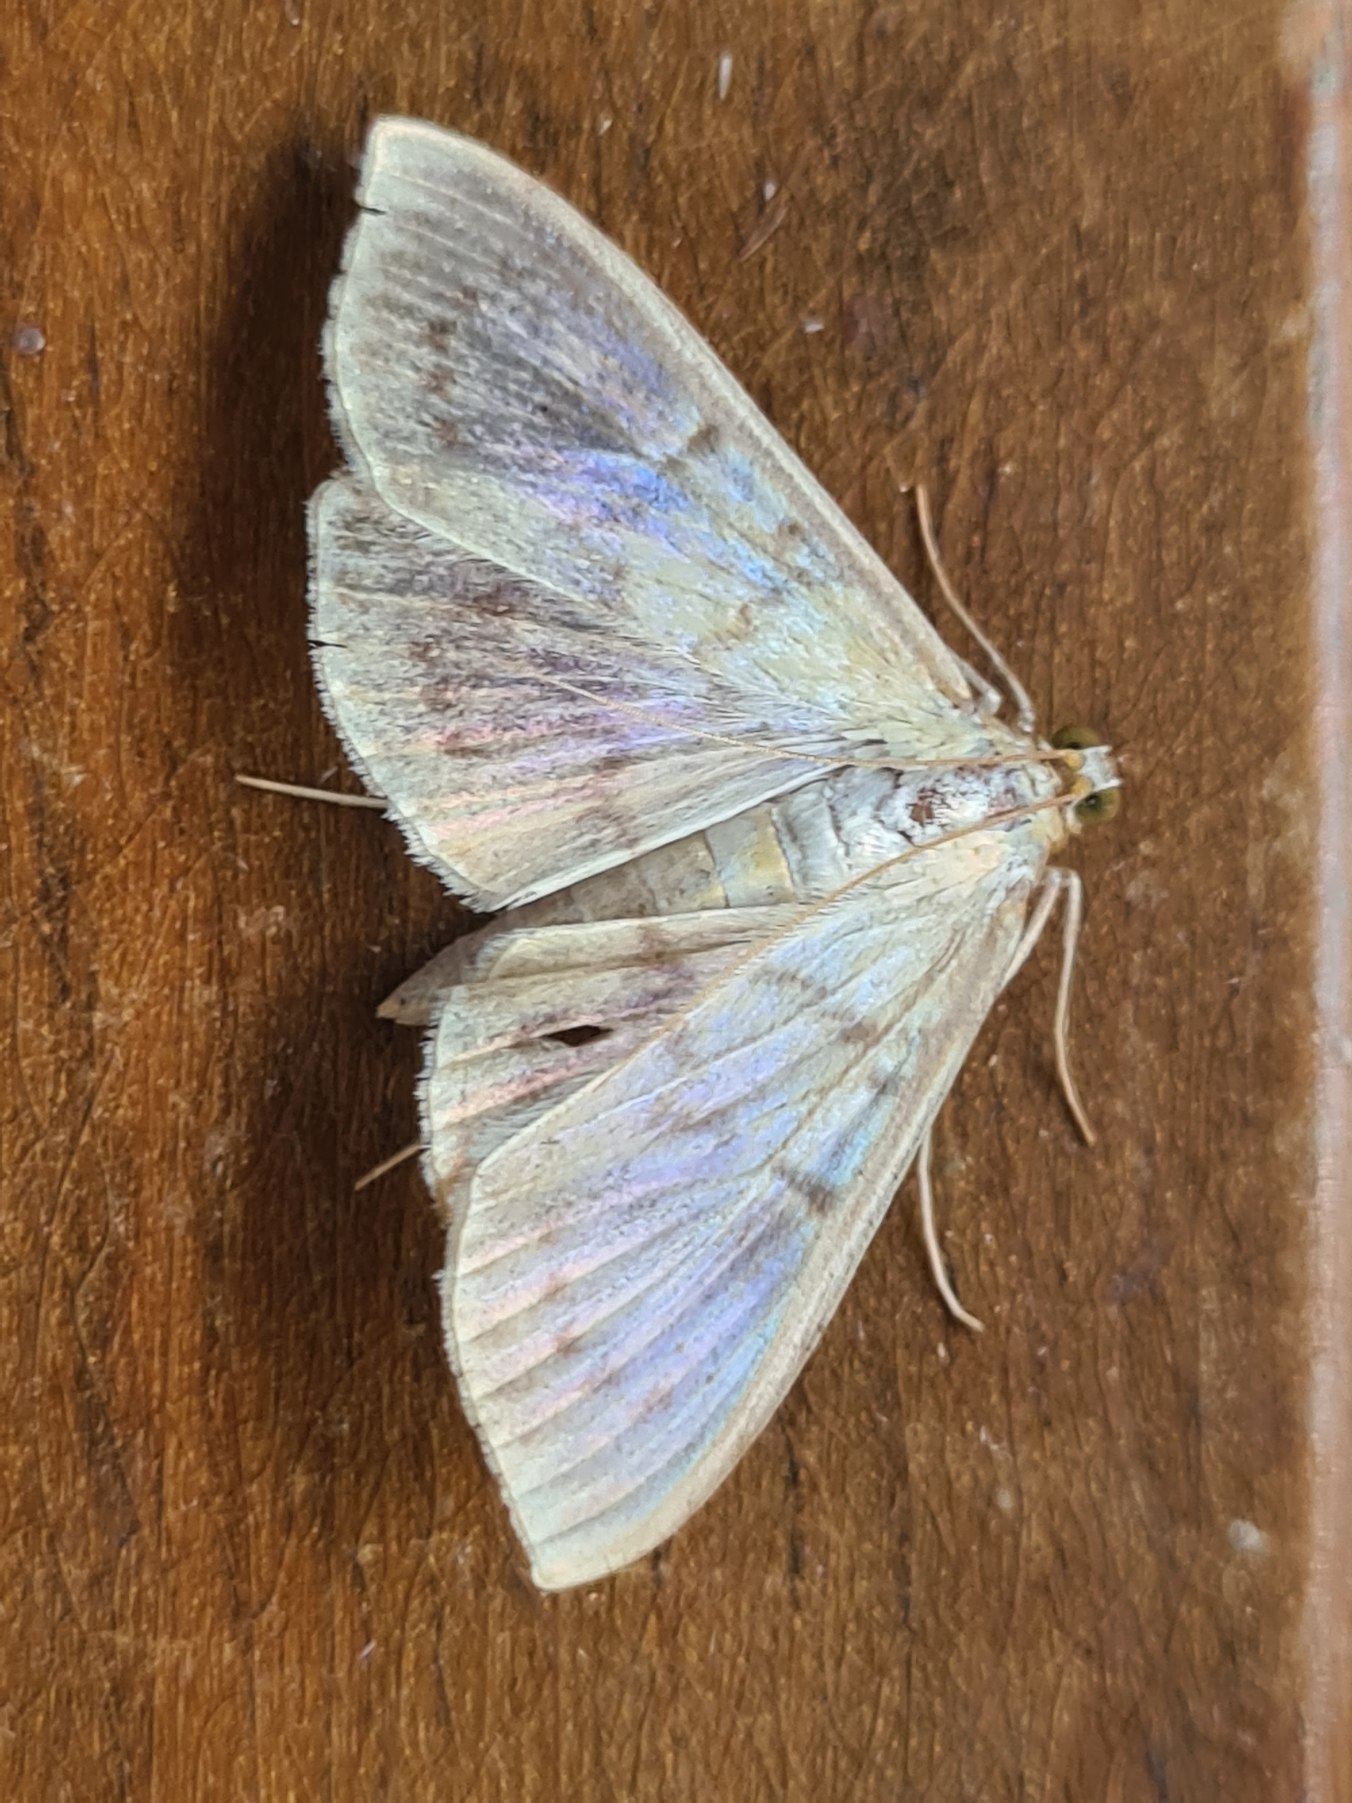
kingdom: Animalia
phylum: Arthropoda
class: Insecta
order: Lepidoptera
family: Crambidae
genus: Patania
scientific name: Patania ruralis
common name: Perlemorshalvmøl
